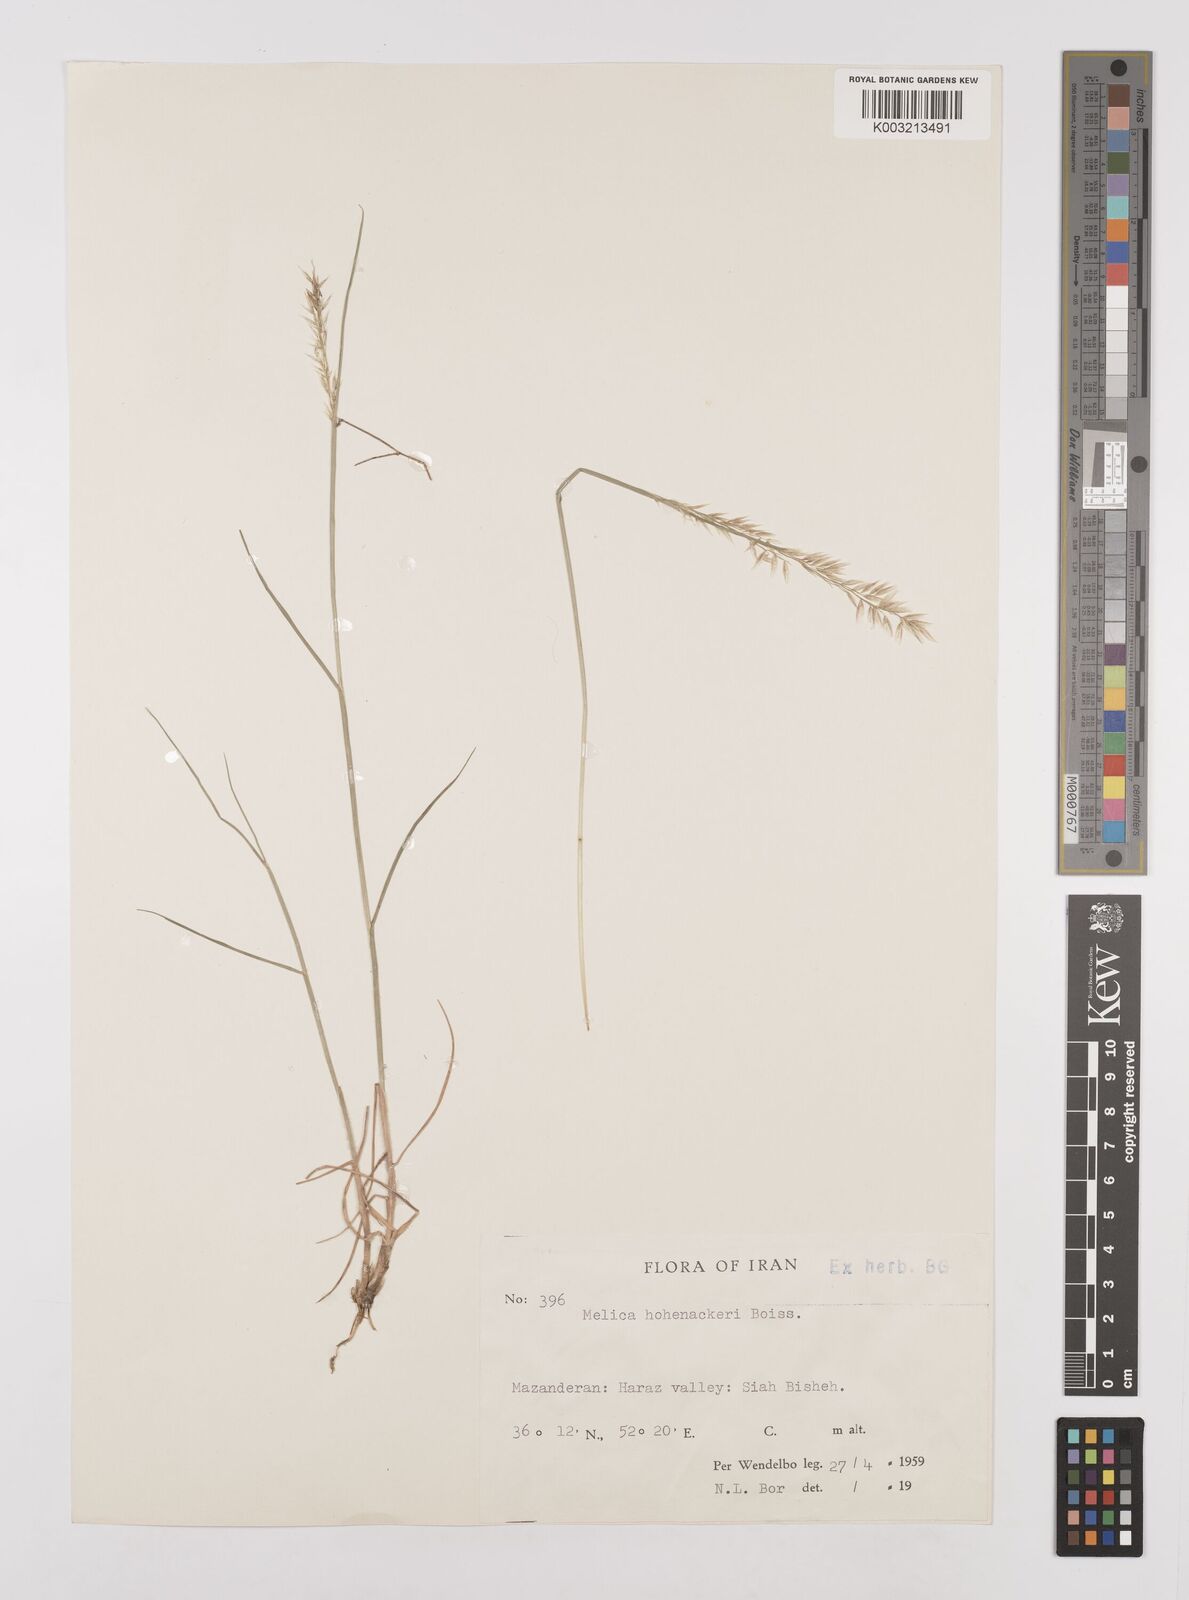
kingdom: Plantae
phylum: Tracheophyta
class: Liliopsida
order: Poales
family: Poaceae
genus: Melica
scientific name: Melica persica
